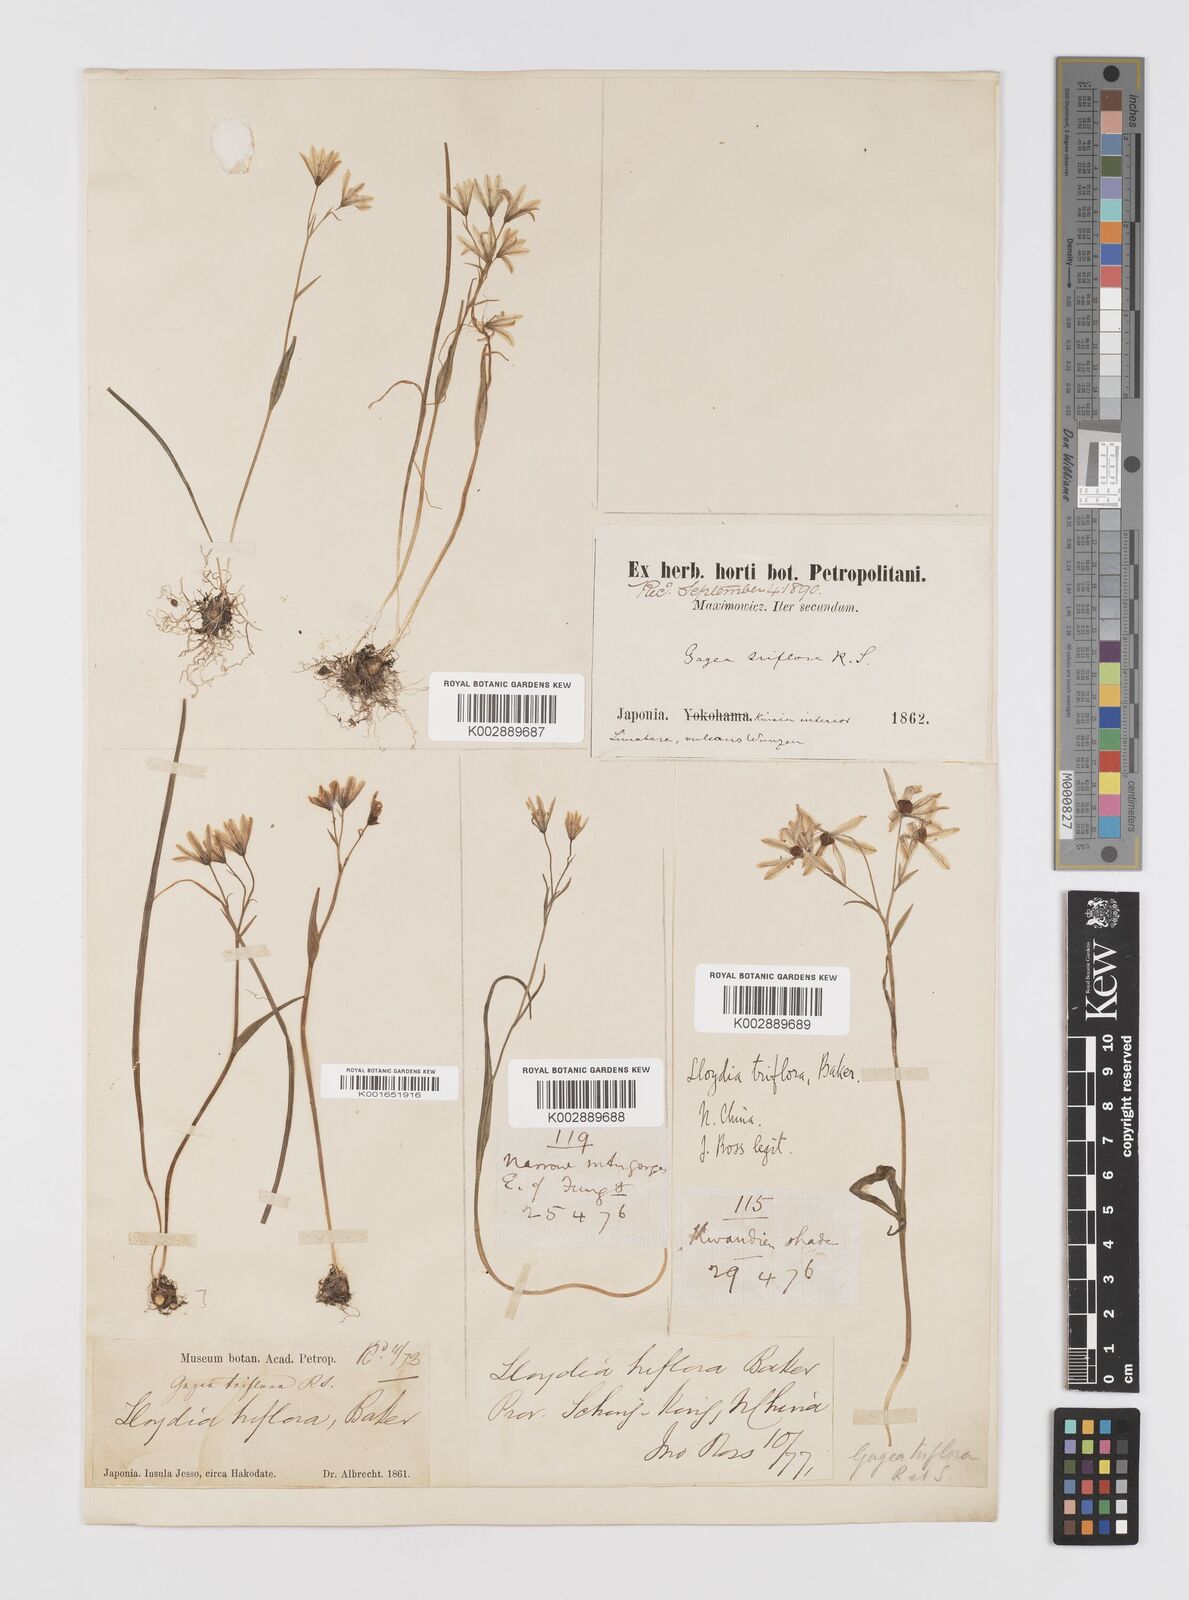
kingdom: Plantae
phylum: Tracheophyta
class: Liliopsida
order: Liliales
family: Liliaceae
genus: Gagea
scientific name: Gagea triflora
